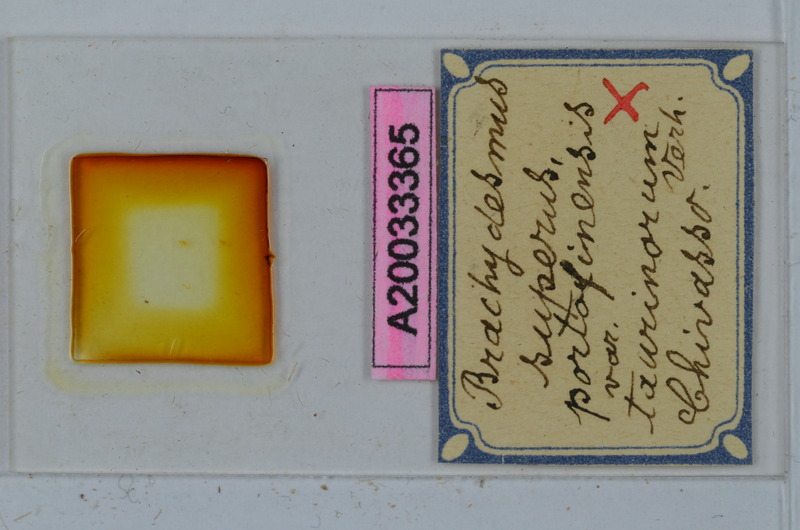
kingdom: Animalia
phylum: Arthropoda
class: Diplopoda
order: Polydesmida
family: Polydesmidae
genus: Brachydesmus
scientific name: Brachydesmus superus
